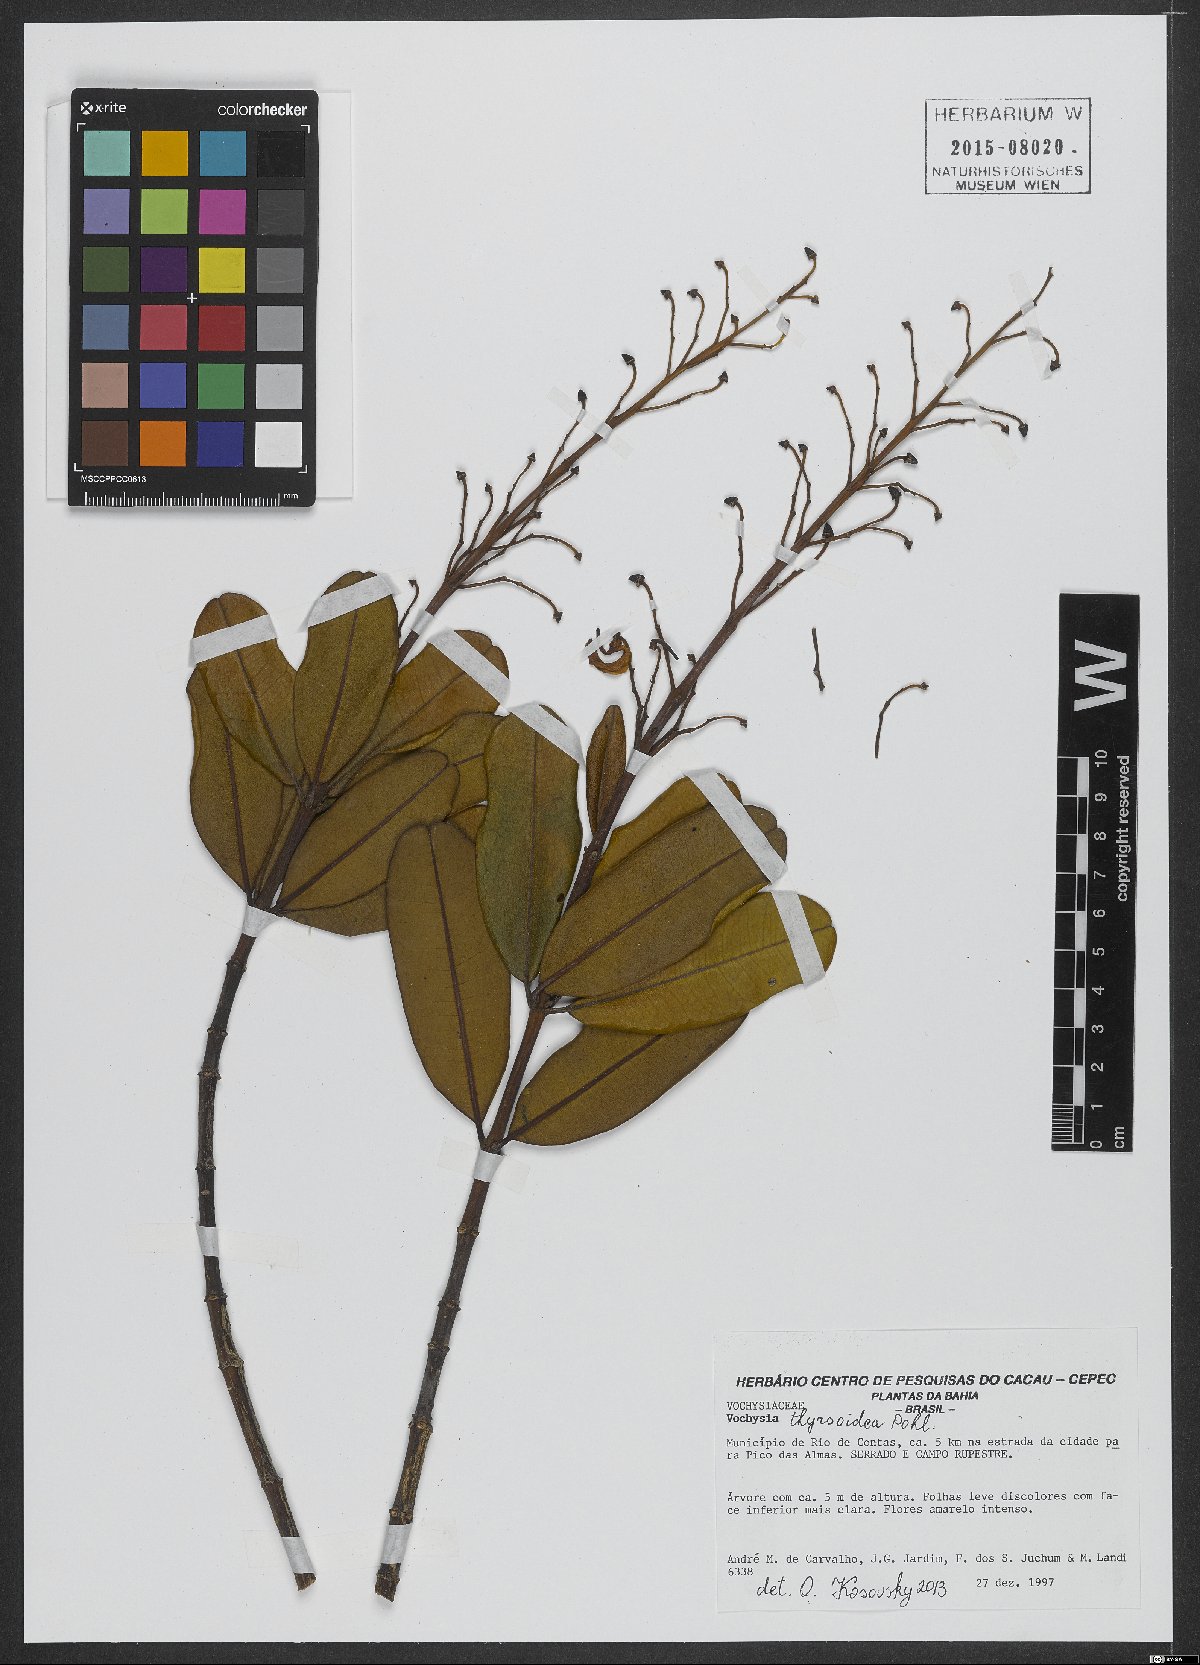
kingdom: Plantae
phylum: Tracheophyta
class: Magnoliopsida
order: Myrtales
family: Vochysiaceae
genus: Vochysia
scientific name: Vochysia thyrsoidea
